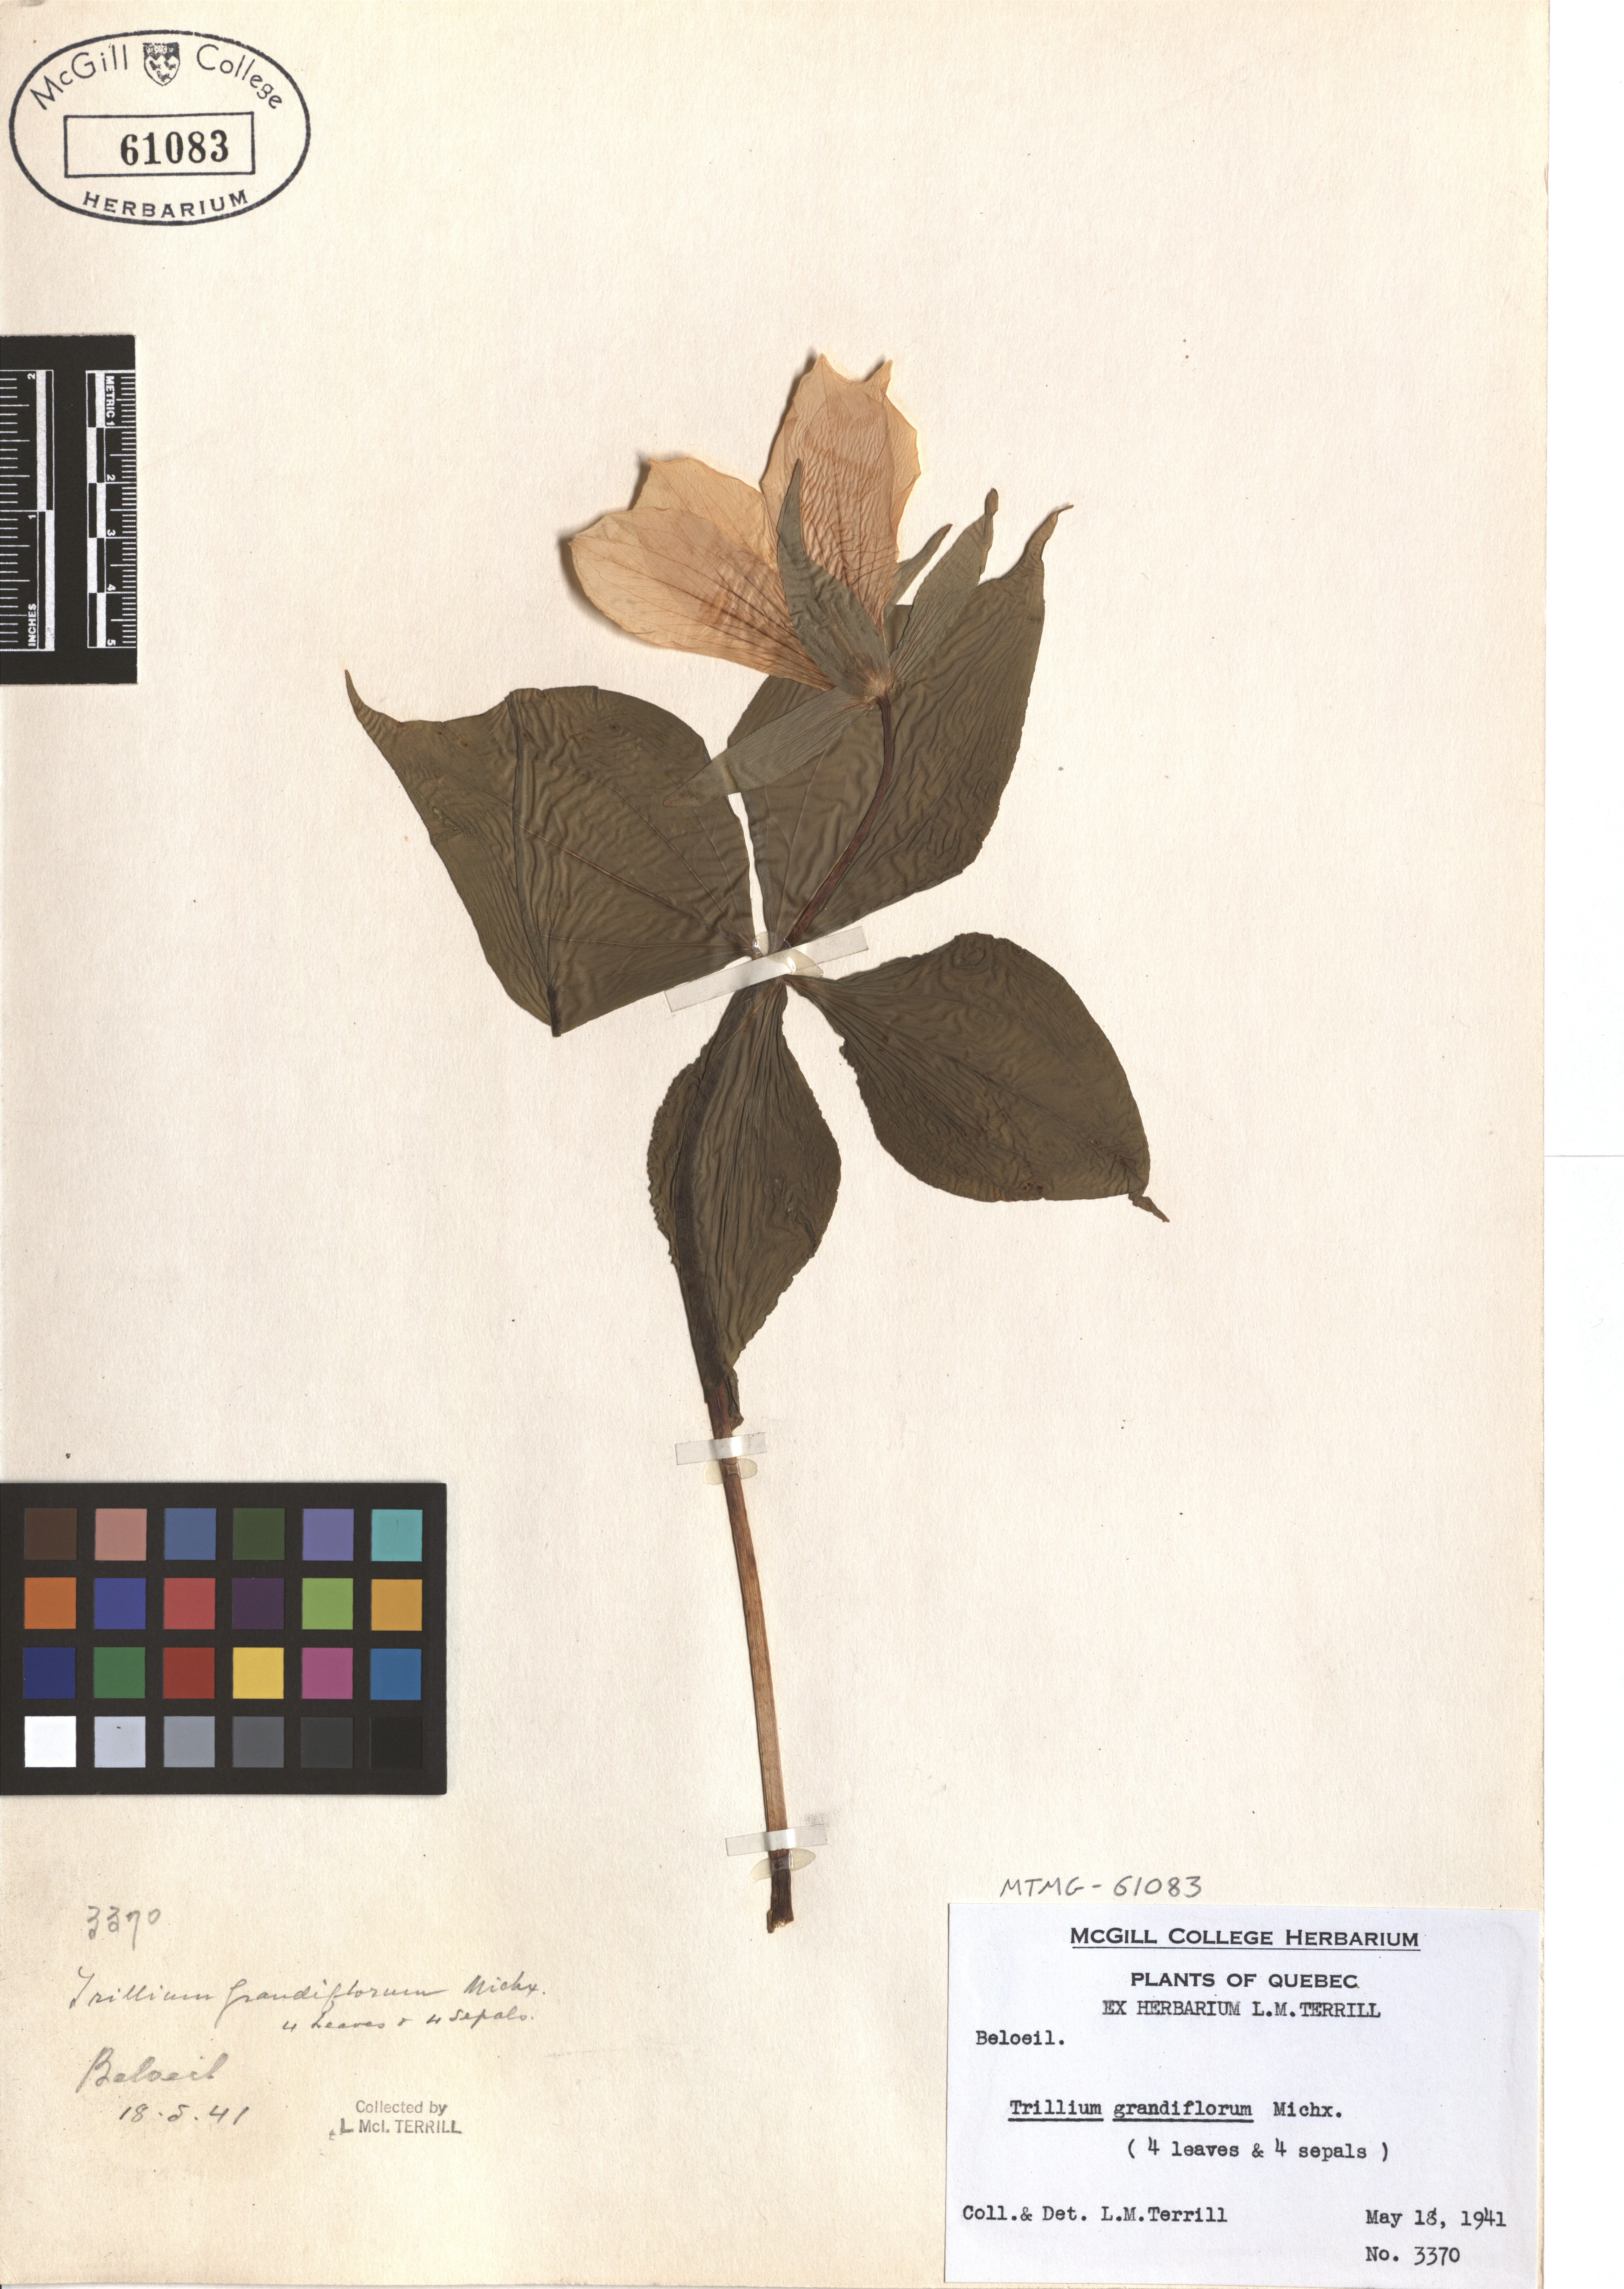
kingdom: Plantae
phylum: Tracheophyta
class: Liliopsida
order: Liliales
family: Melanthiaceae
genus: Trillium
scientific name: Trillium grandiflorum
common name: Great white trillium
